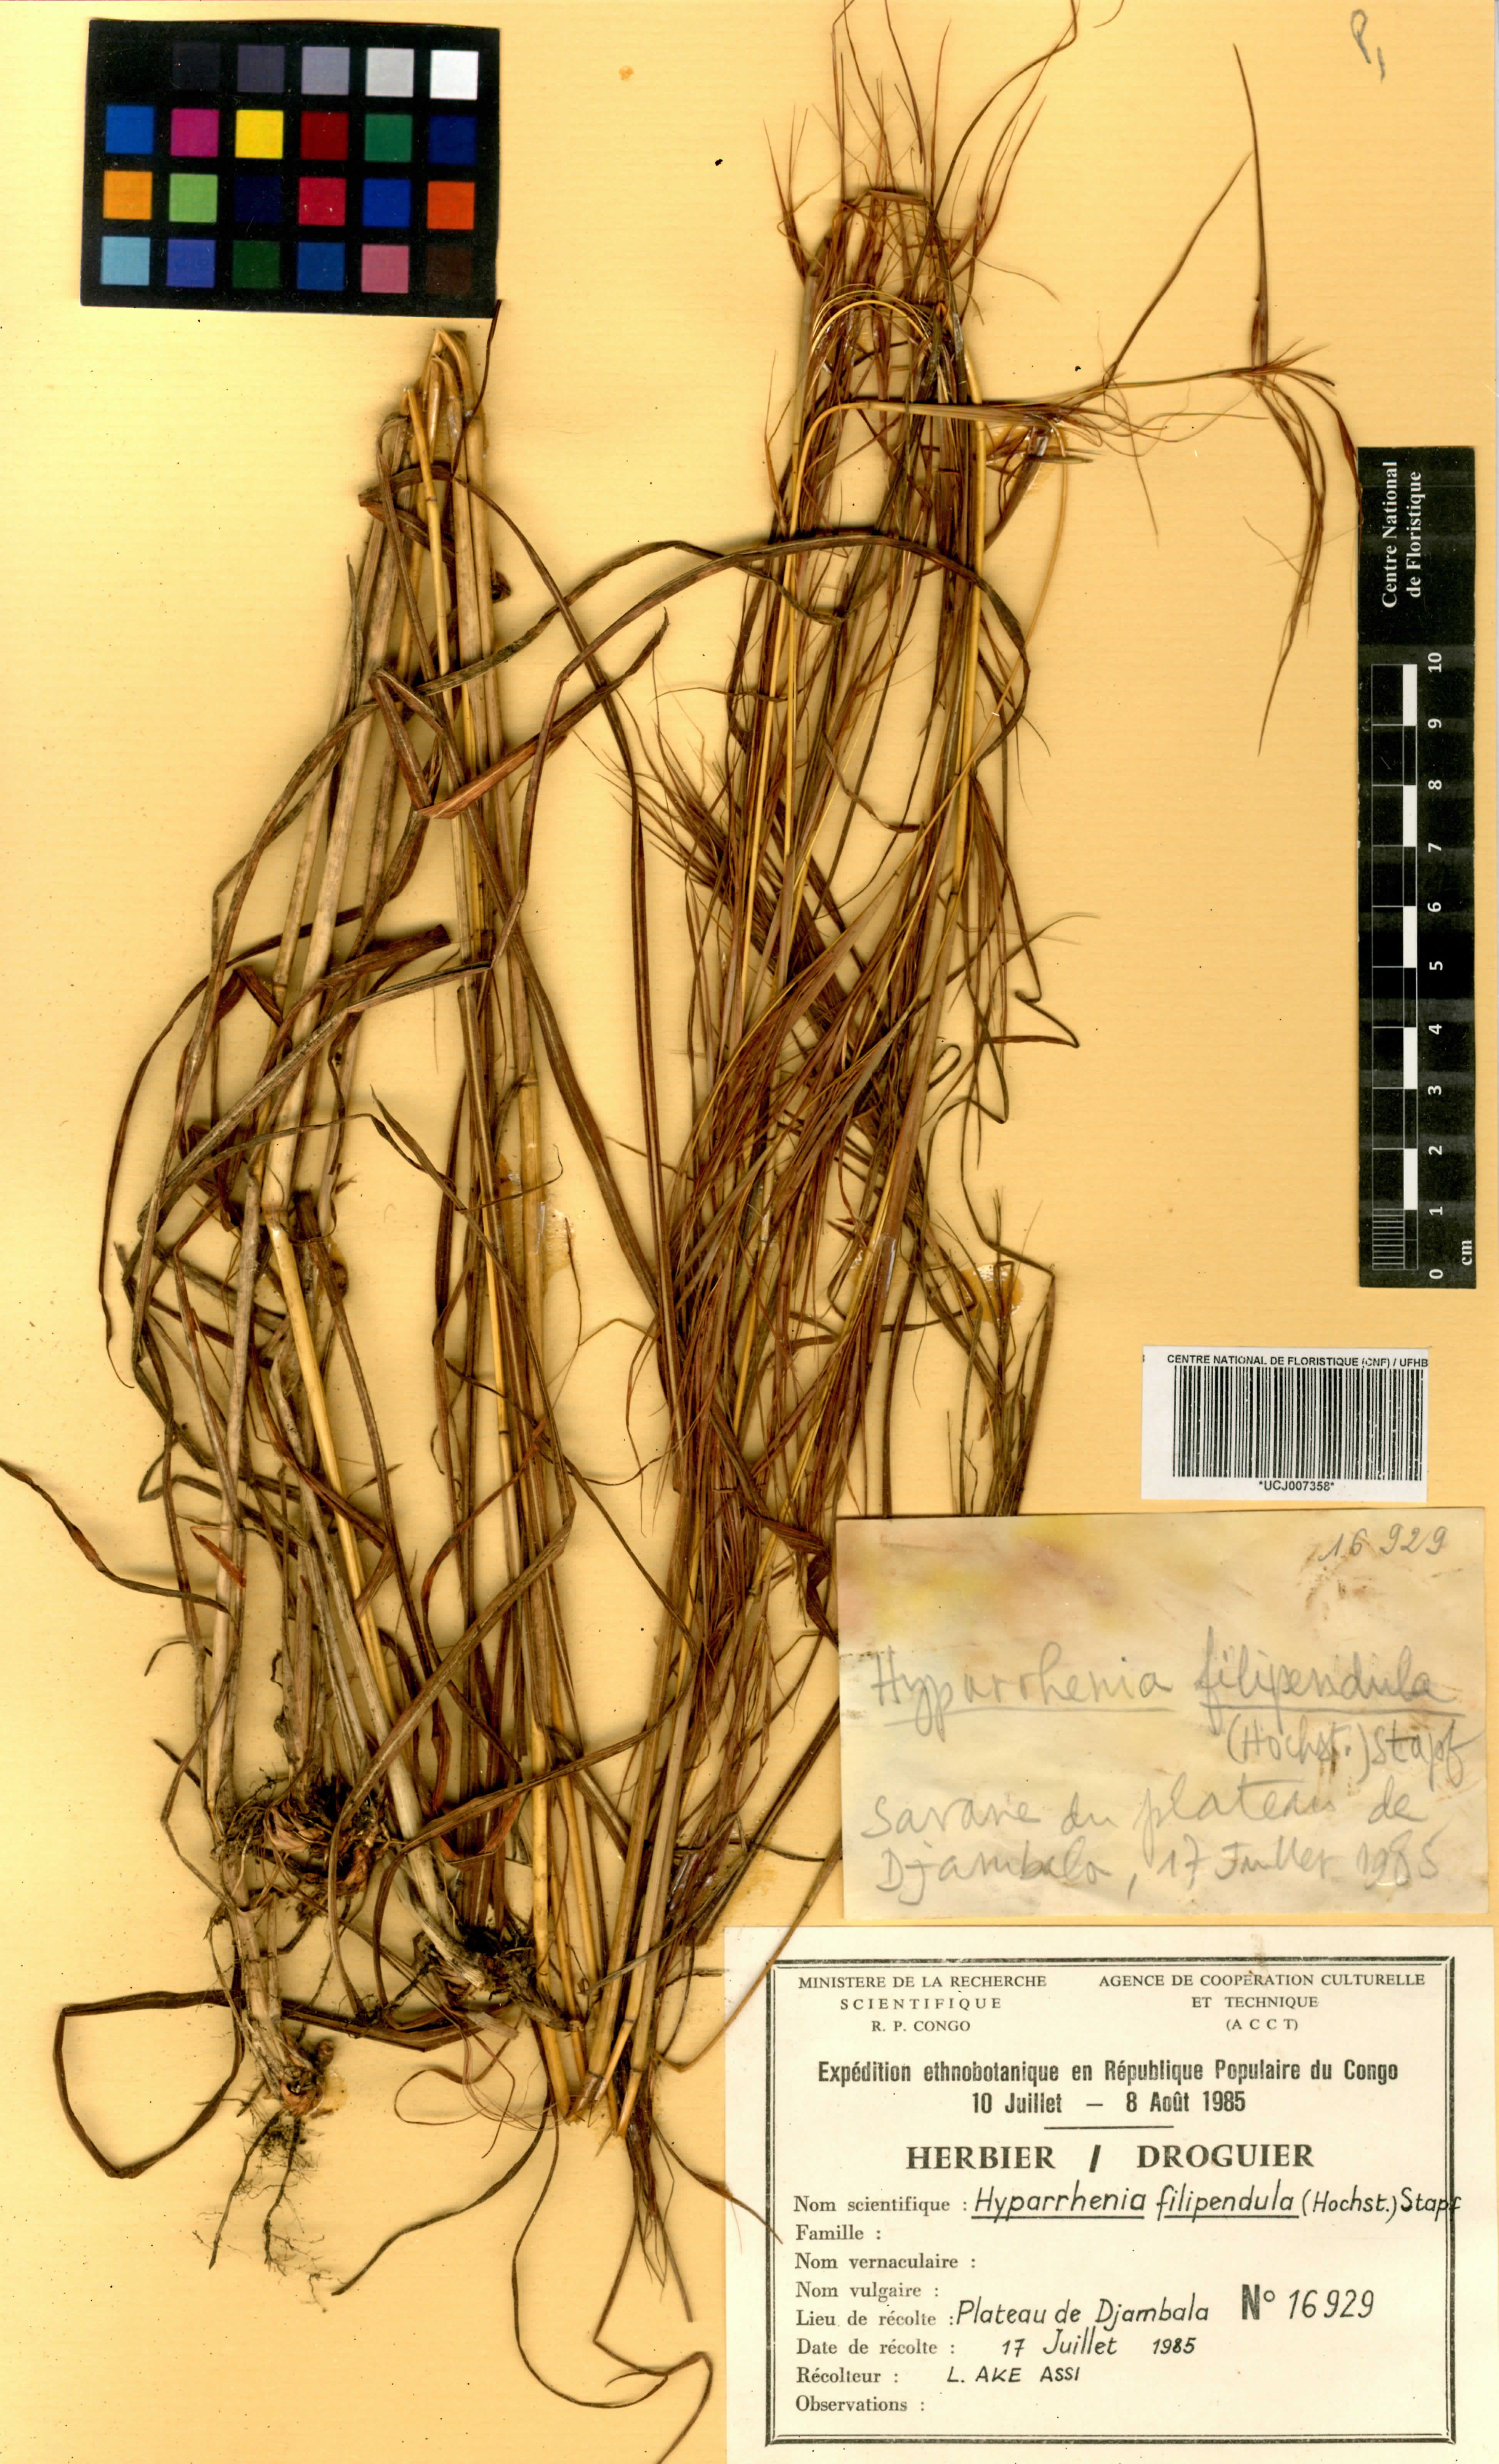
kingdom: Plantae
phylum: Tracheophyta
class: Liliopsida
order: Poales
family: Poaceae
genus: Hyparrhenia
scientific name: Hyparrhenia filipendula
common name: Tambookie grass
